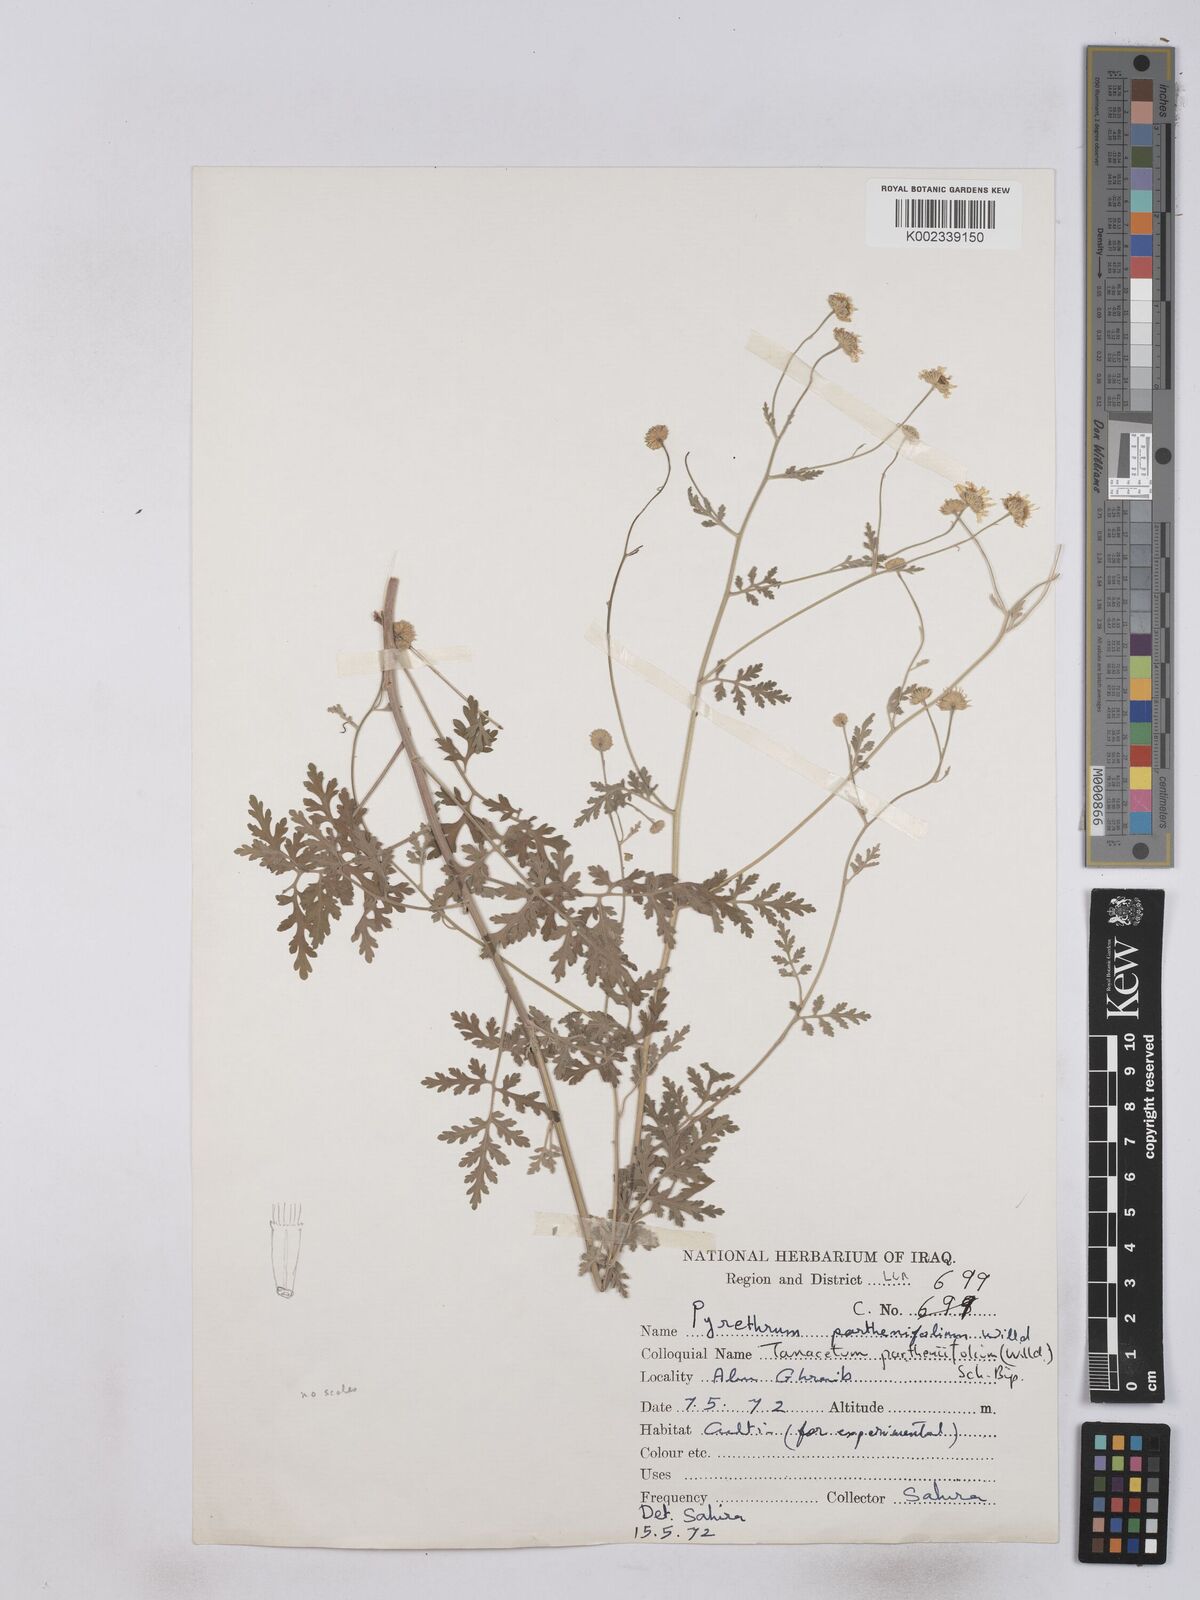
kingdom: Plantae
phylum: Tracheophyta
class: Magnoliopsida
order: Asterales
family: Asteraceae
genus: Tanacetum
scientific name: Tanacetum partheniifolium
